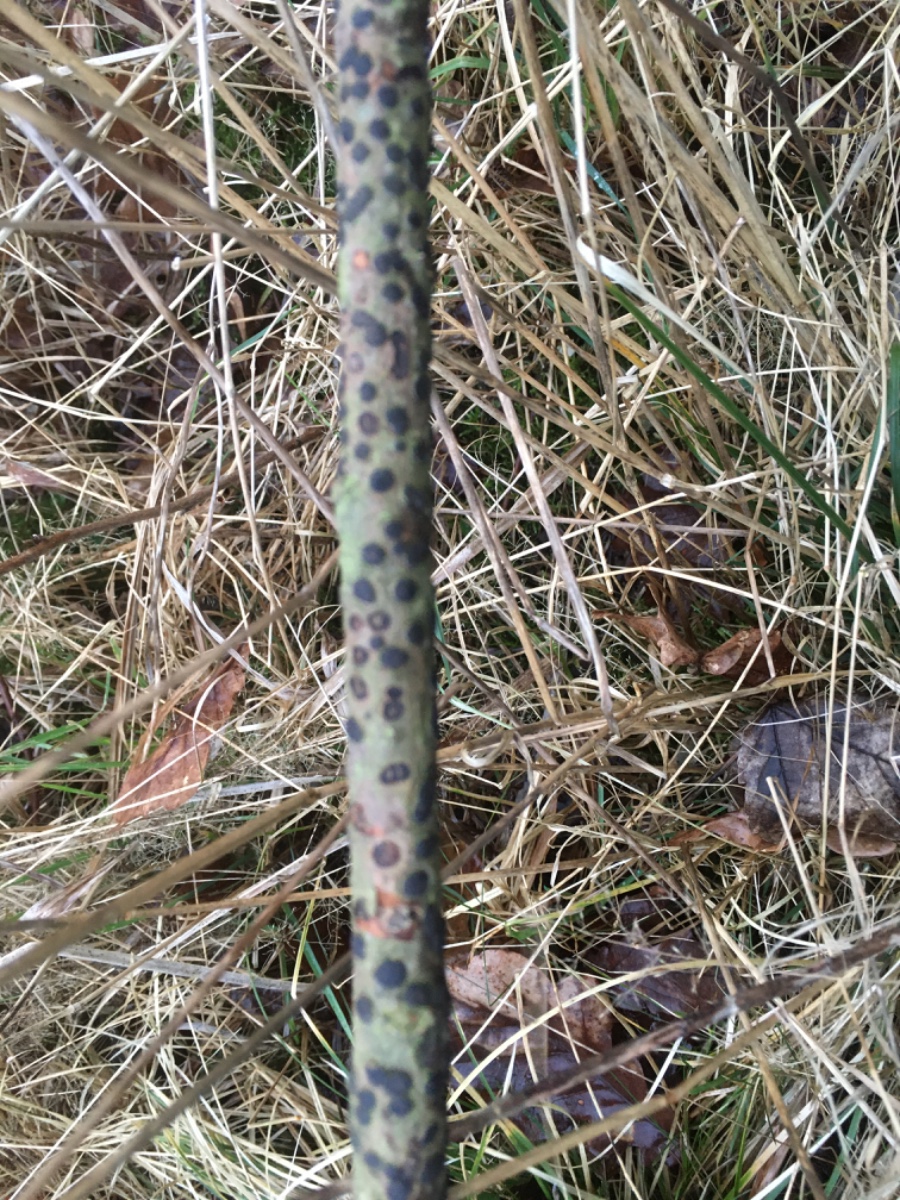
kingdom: Fungi
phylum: Ascomycota
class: Sordariomycetes
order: Xylariales
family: Diatrypaceae
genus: Diatrype
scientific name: Diatrype bullata
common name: pile-kulskorpe
